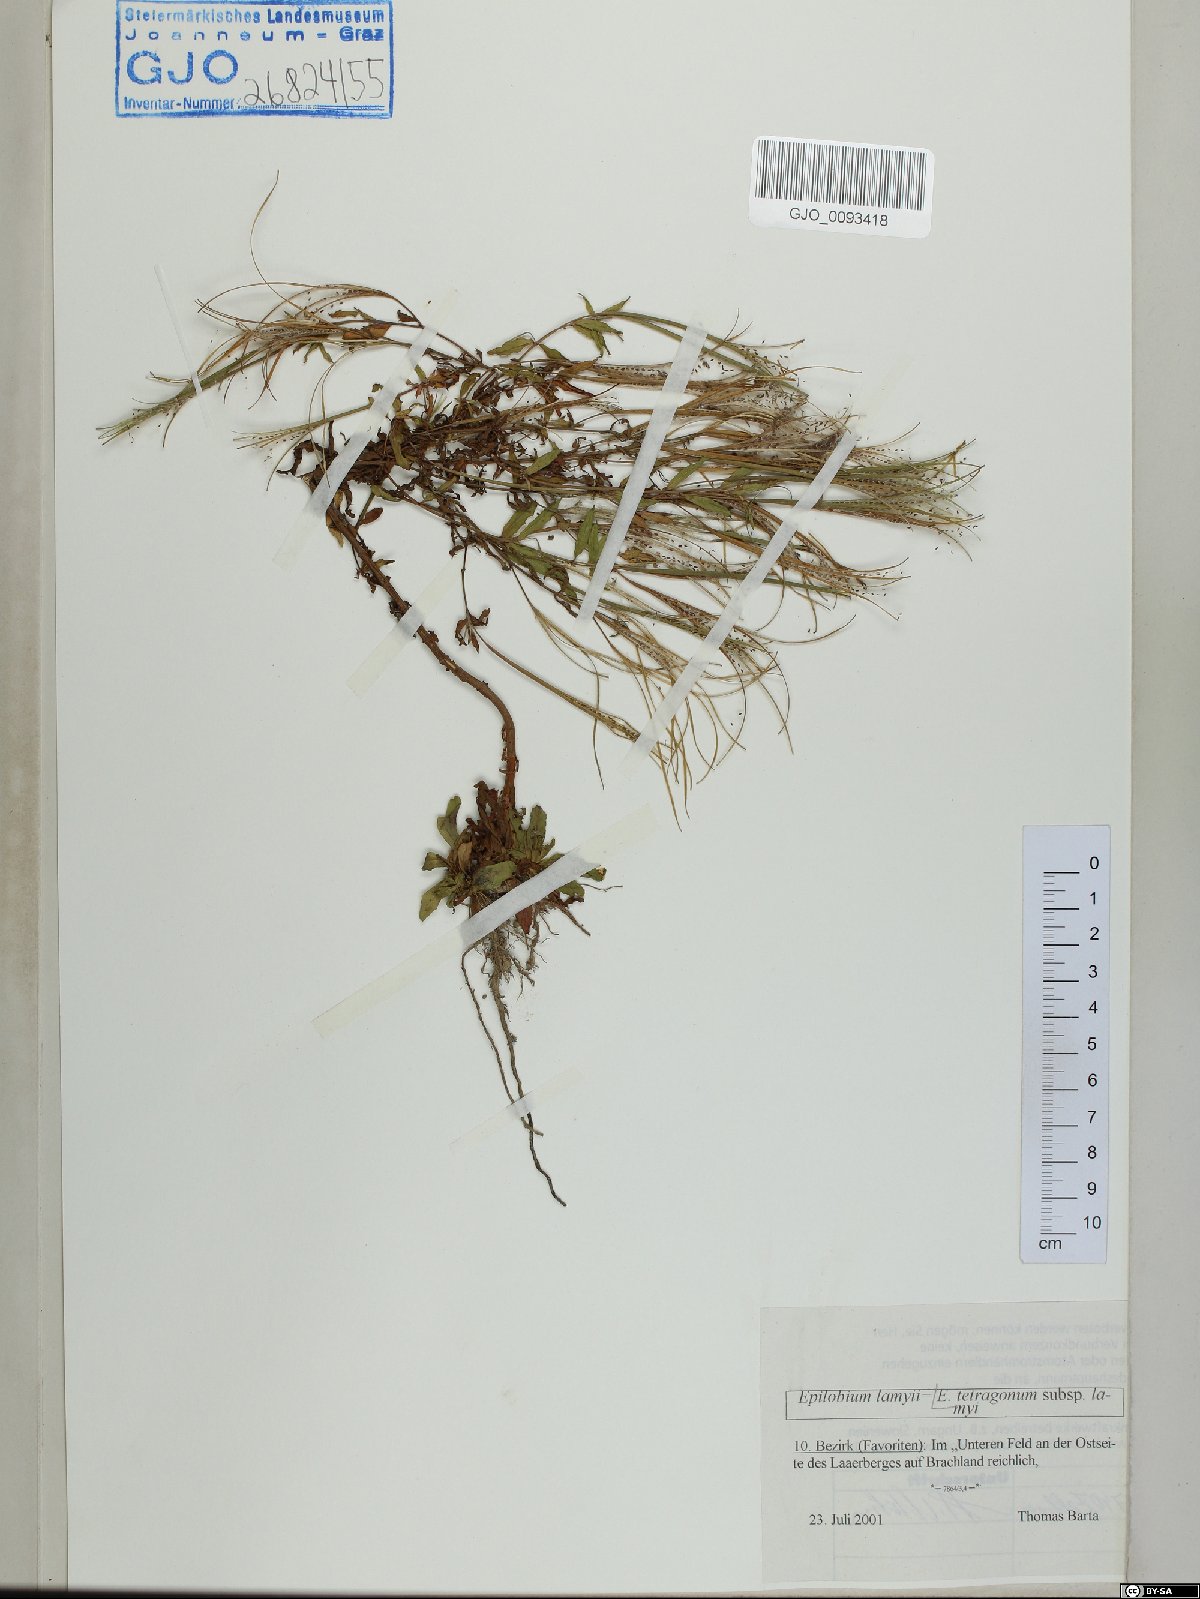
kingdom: Plantae
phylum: Tracheophyta
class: Magnoliopsida
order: Myrtales
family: Onagraceae
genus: Epilobium
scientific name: Epilobium lamyi
